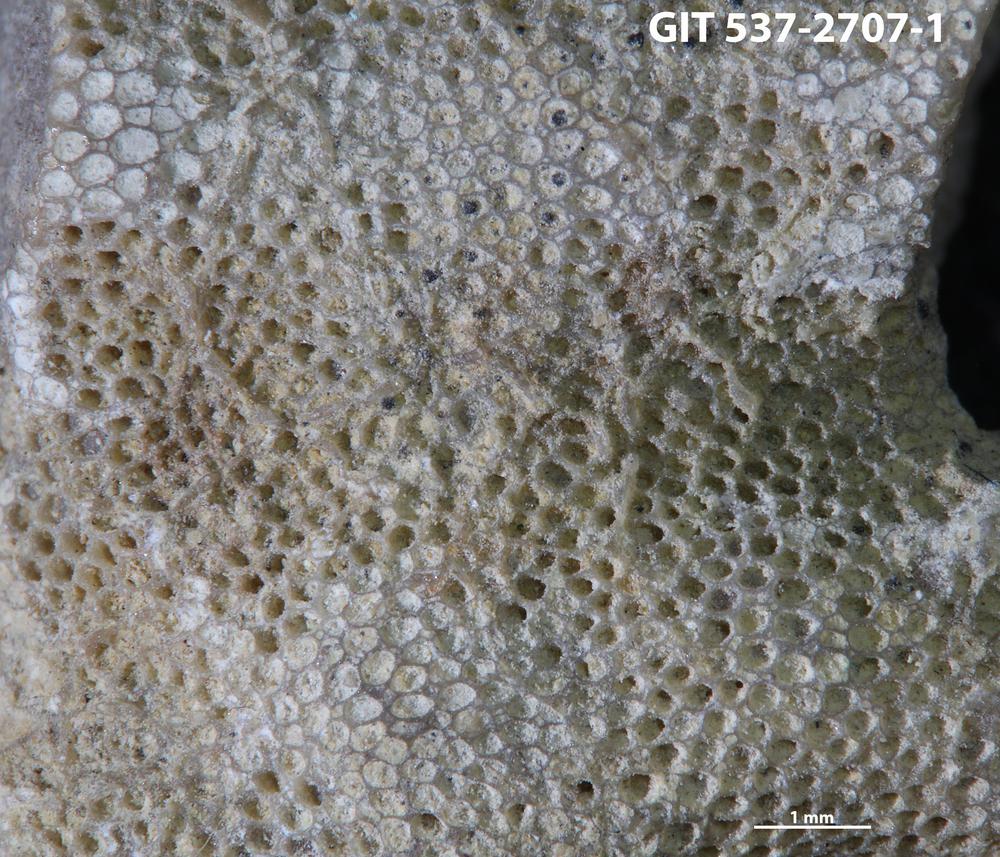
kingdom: Animalia
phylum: Bryozoa
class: Stenolaemata
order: Cyclostomatida
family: Corynotrypidae
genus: Corynotrypa
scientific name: Corynotrypa
